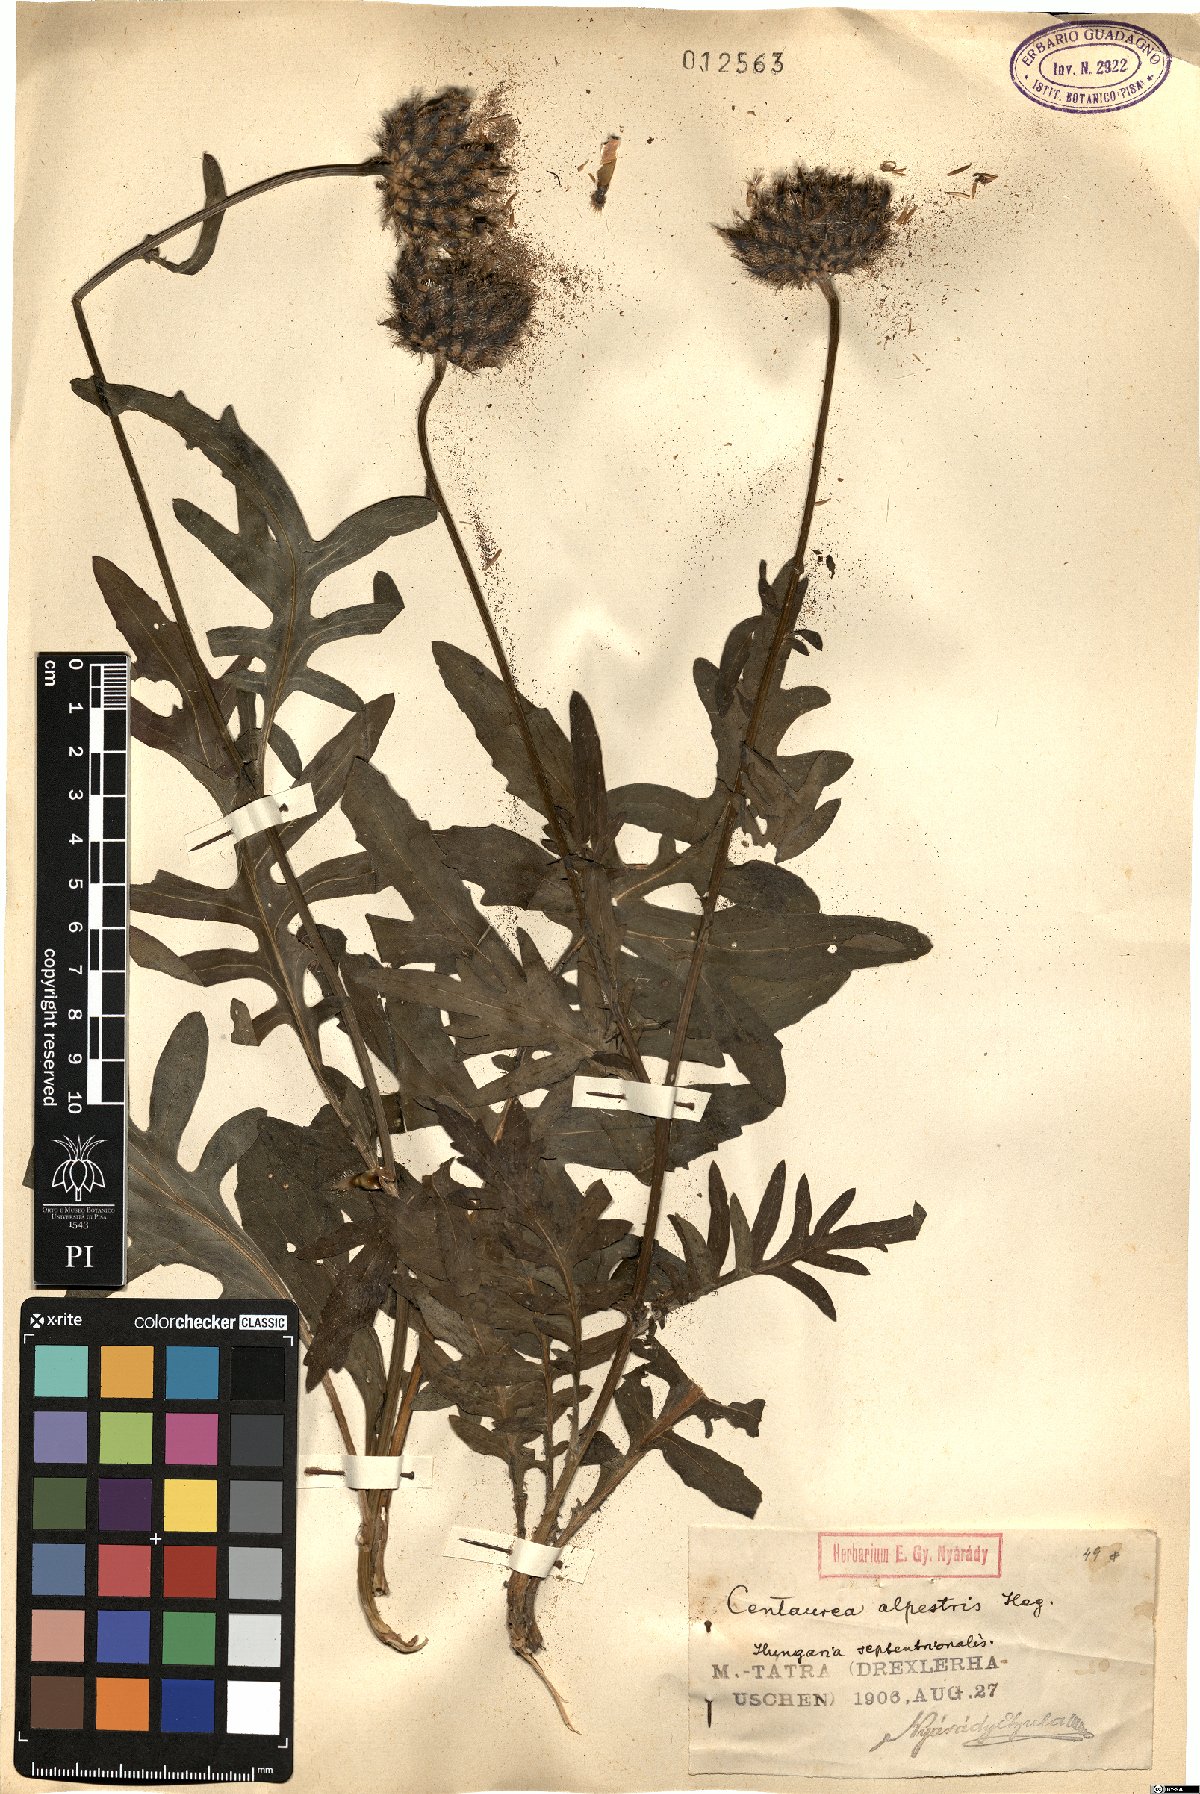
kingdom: Plantae
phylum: Tracheophyta
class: Magnoliopsida
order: Asterales
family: Asteraceae
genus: Centaurea
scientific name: Centaurea scabiosa
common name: Greater knapweed
